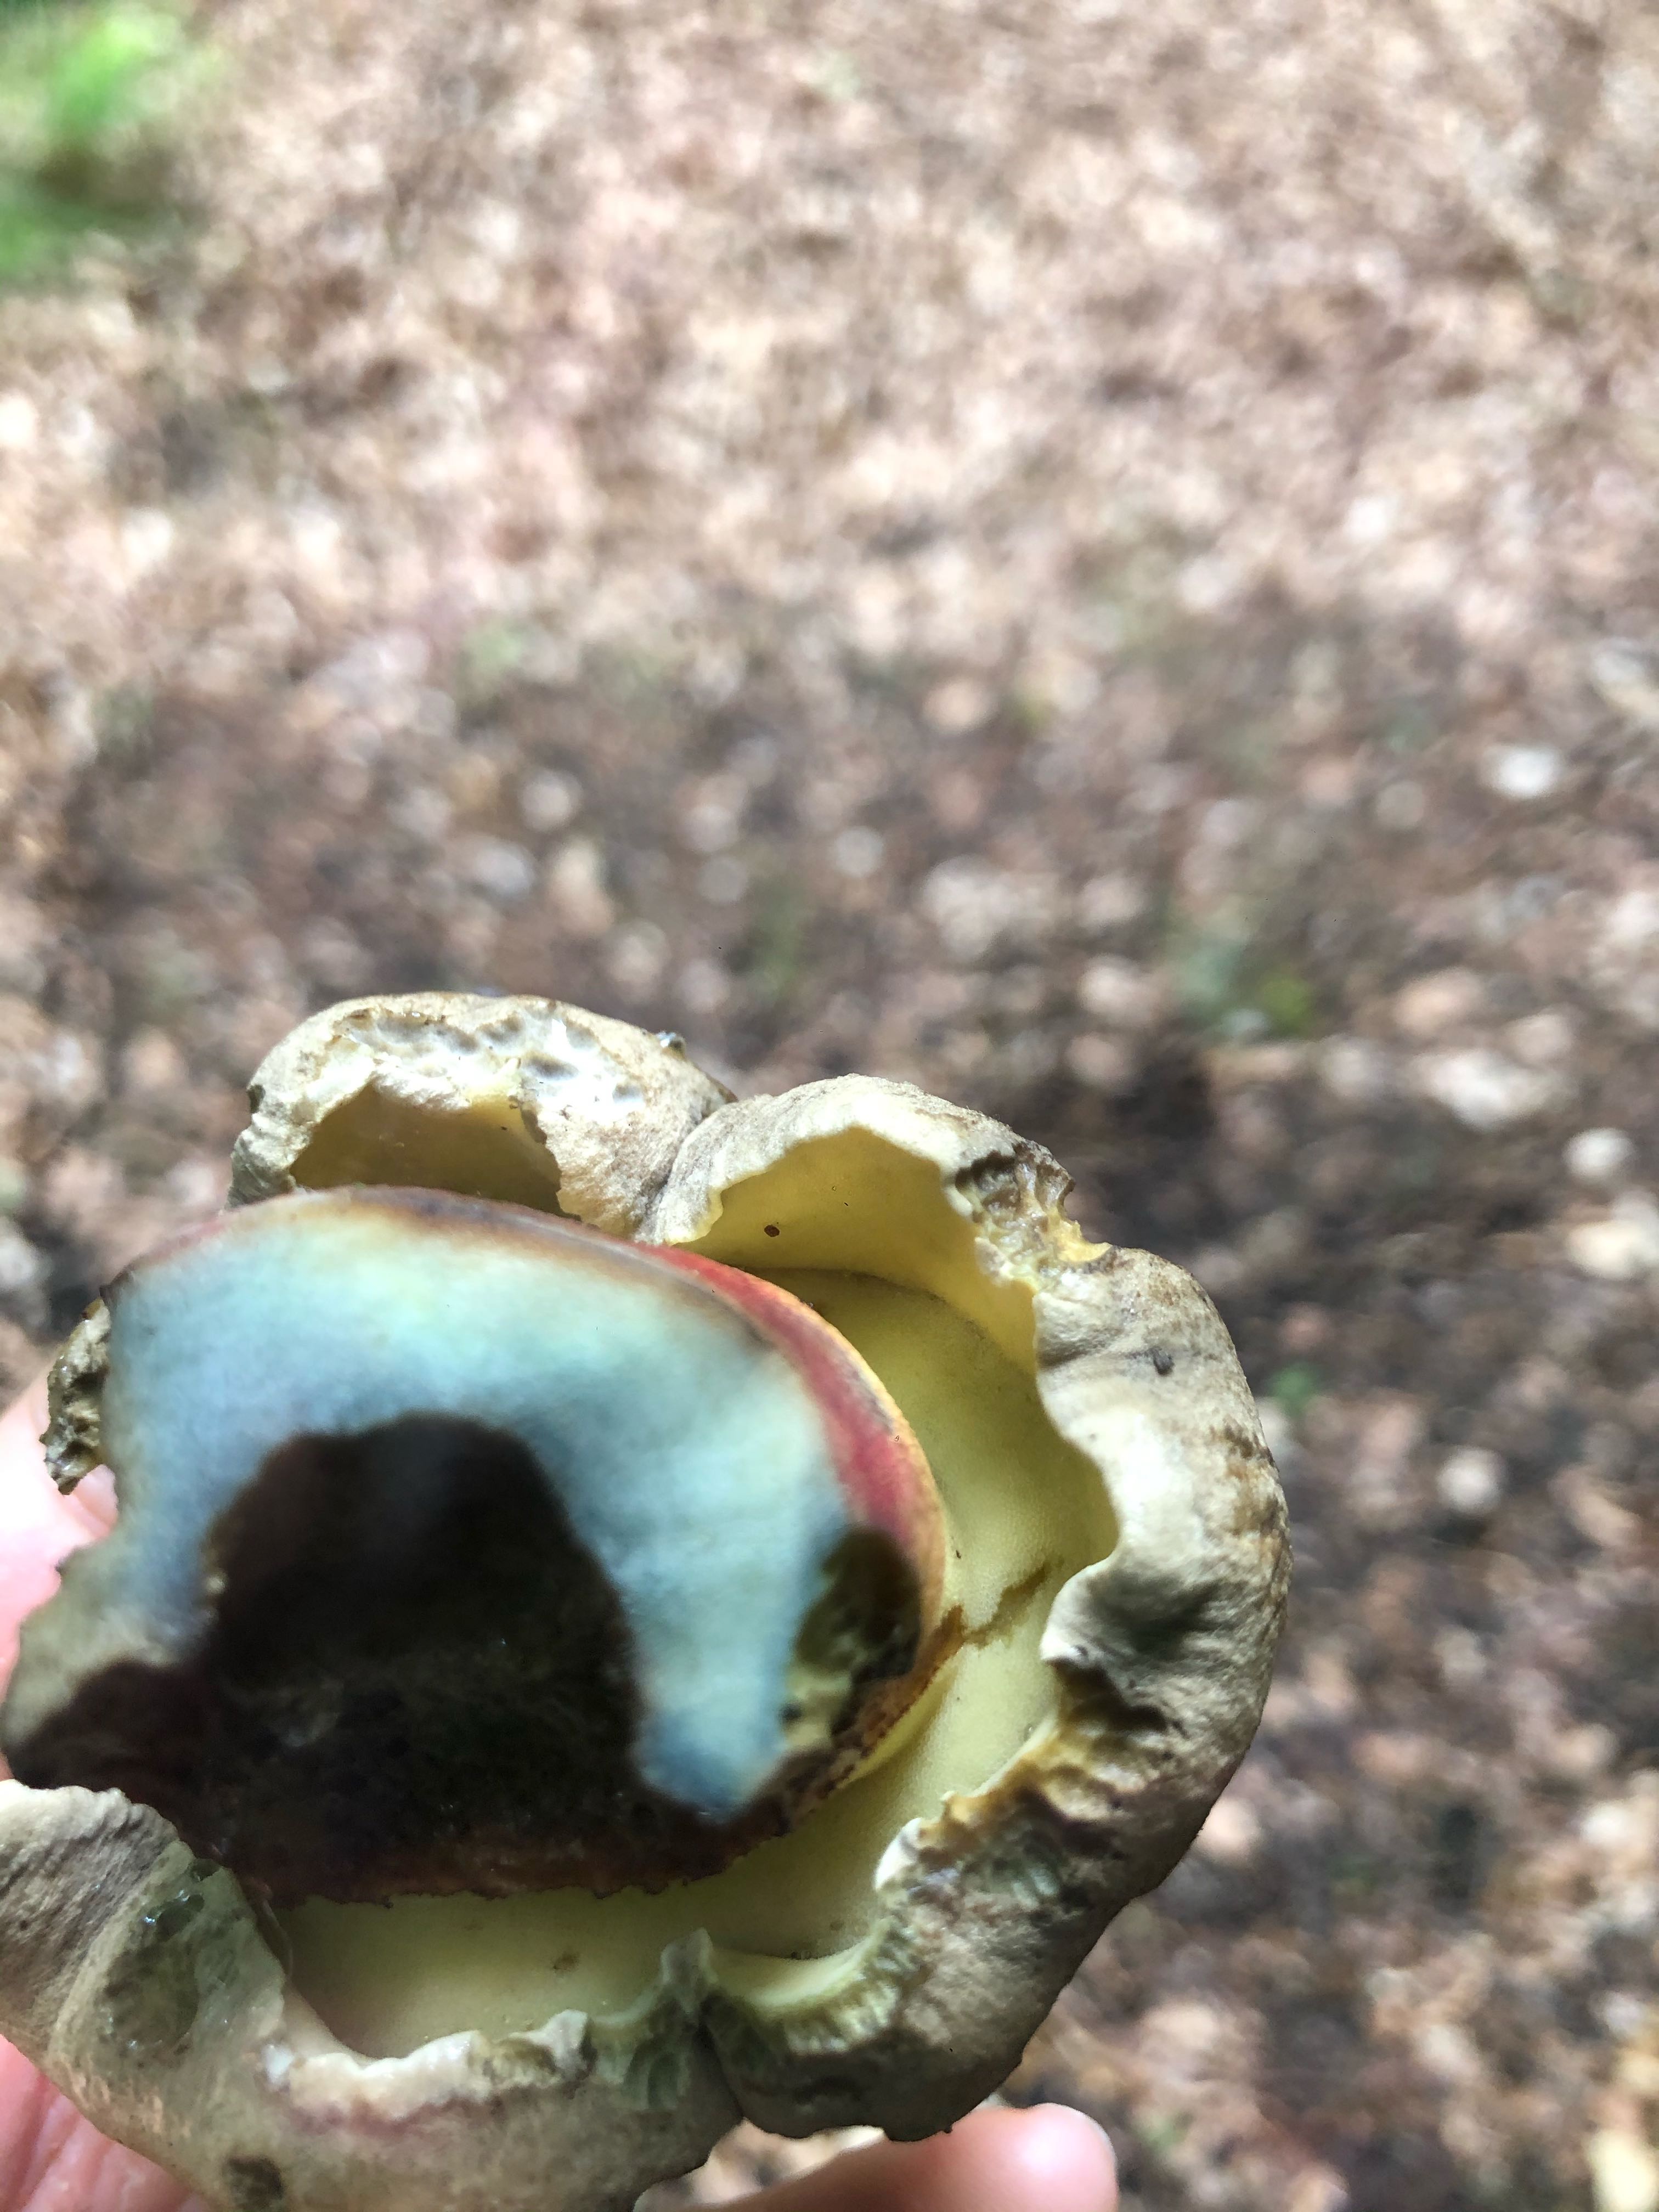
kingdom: Fungi
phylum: Basidiomycota
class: Agaricomycetes
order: Boletales
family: Boletaceae
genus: Caloboletus
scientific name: Caloboletus calopus
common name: skønfodet rørhat
